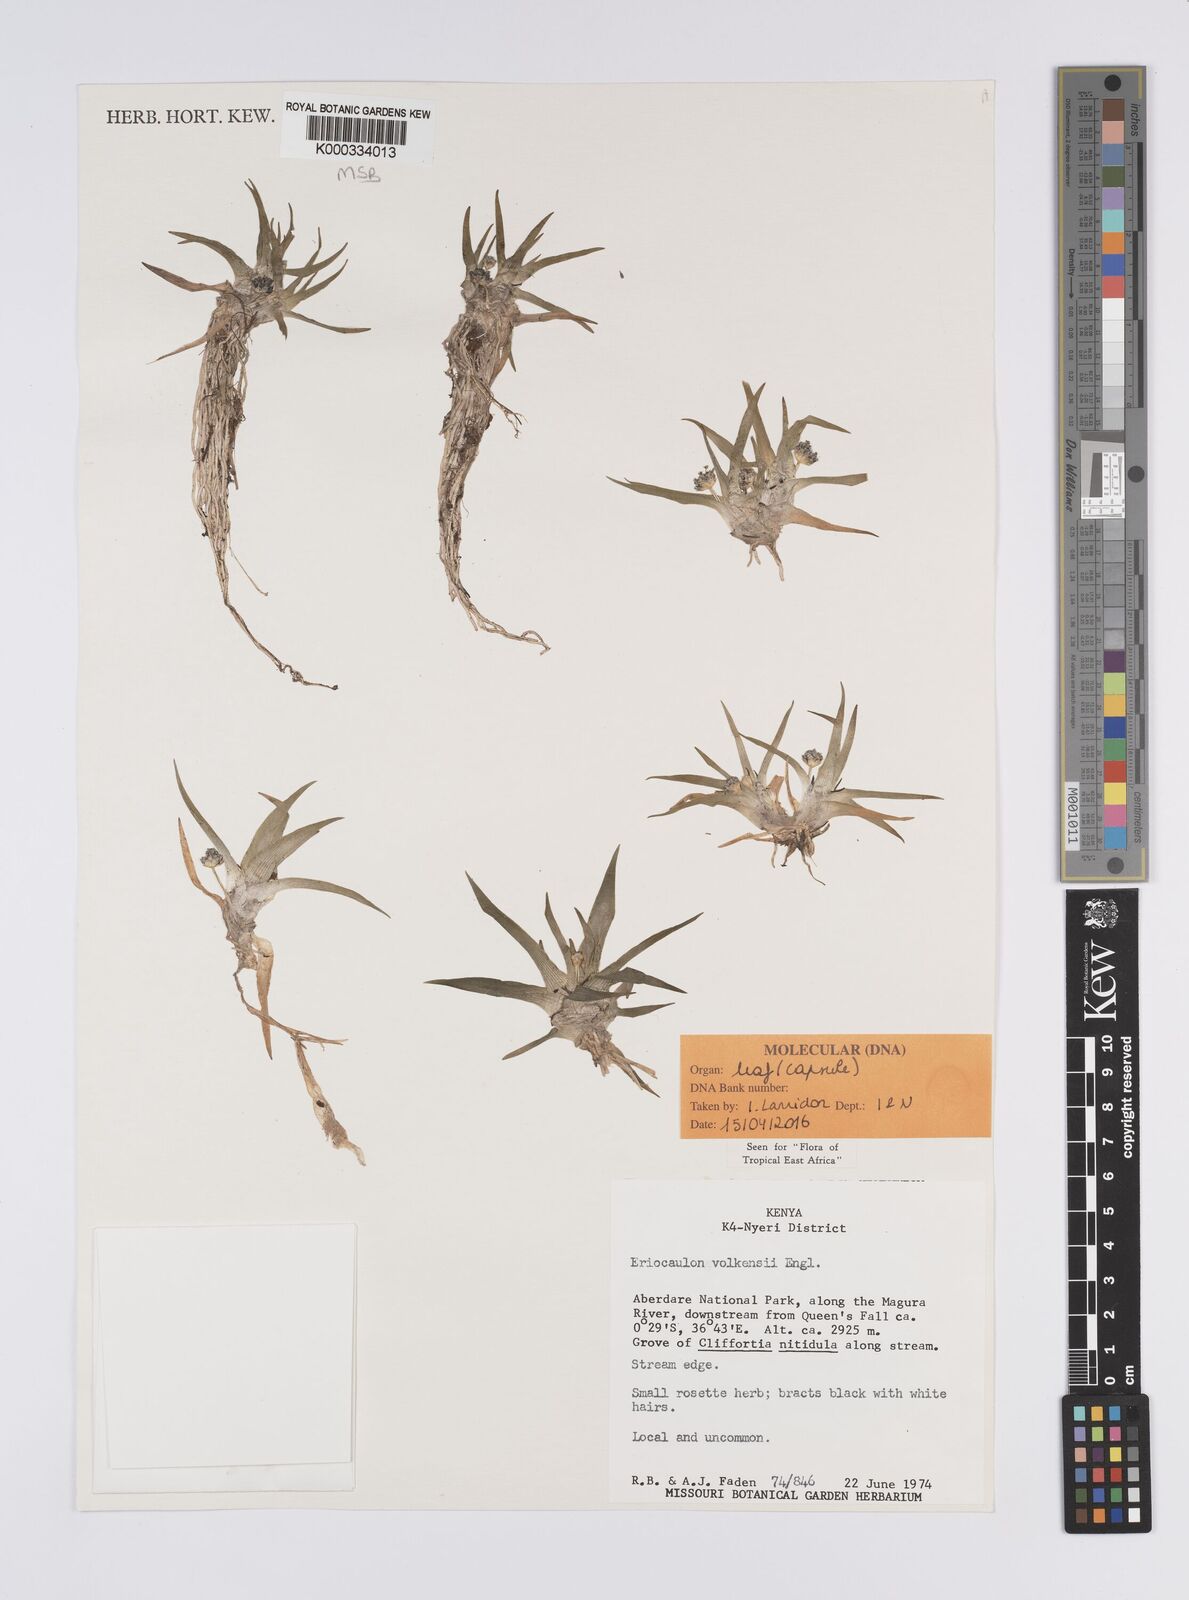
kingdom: Plantae
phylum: Tracheophyta
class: Liliopsida
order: Poales
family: Eriocaulaceae
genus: Eriocaulon
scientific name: Eriocaulon volkensii
